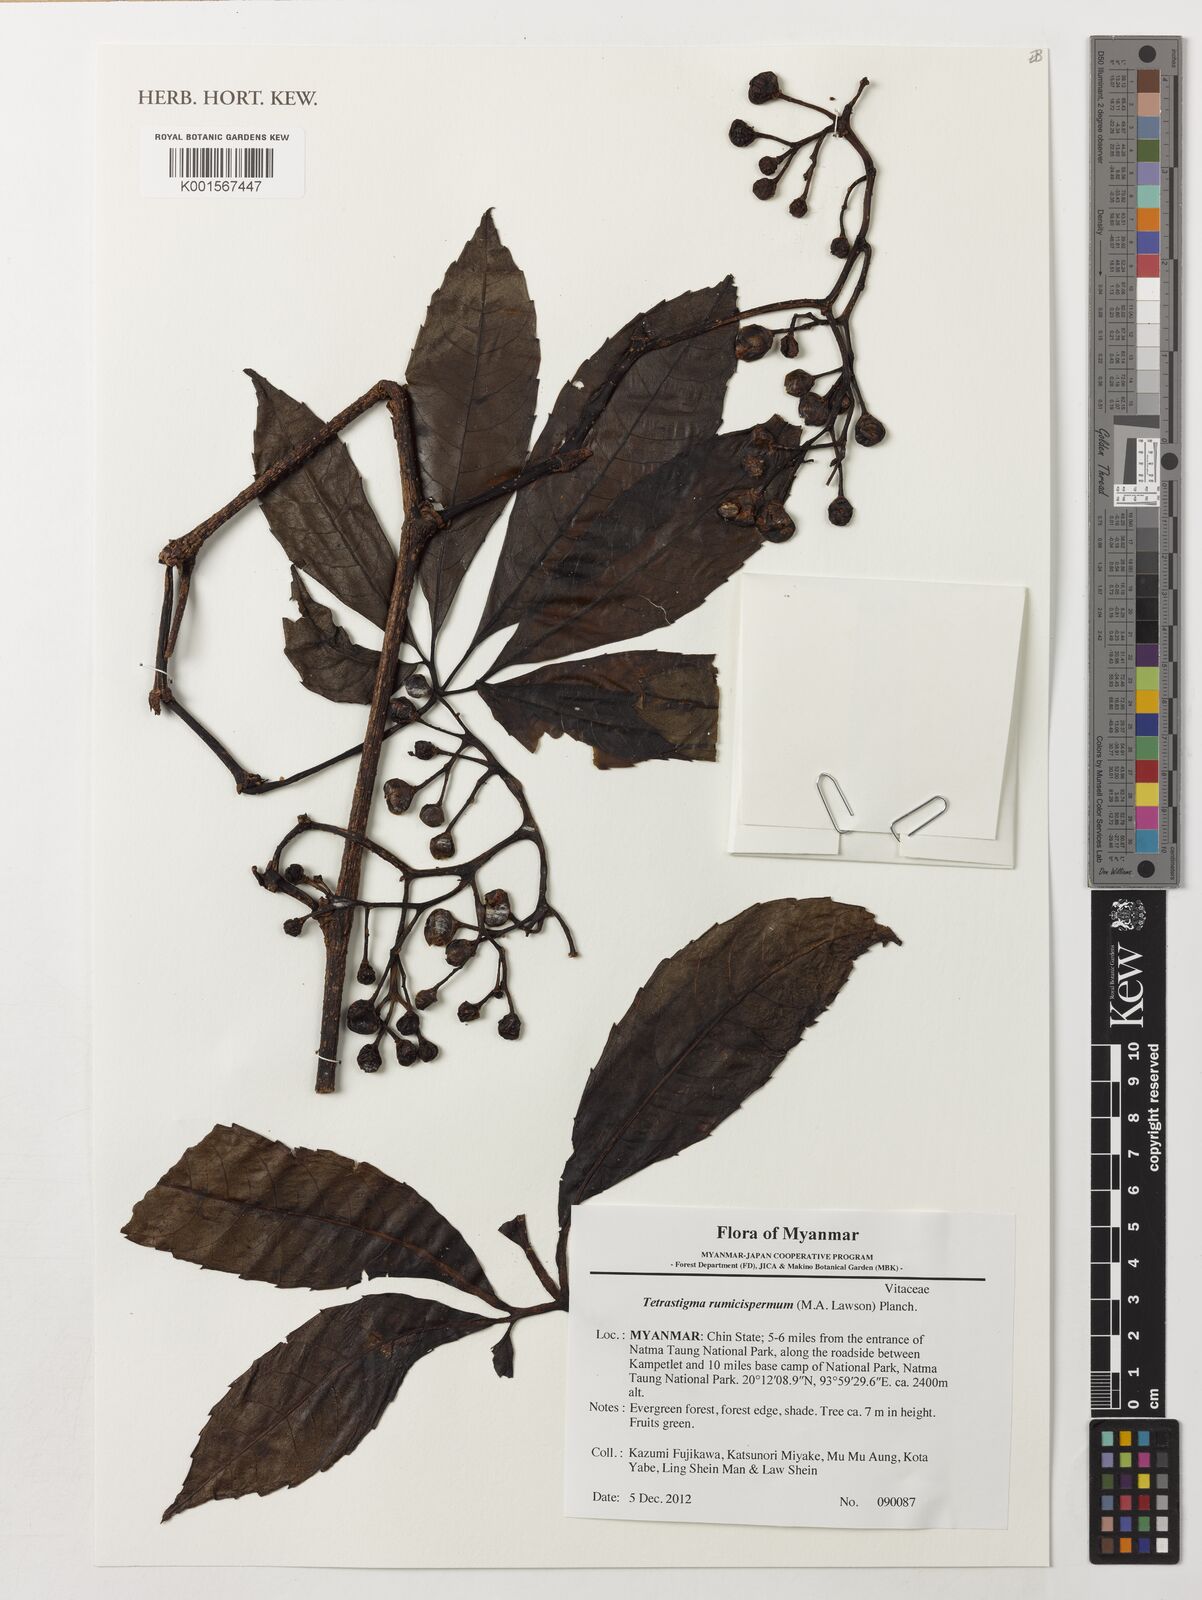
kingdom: Plantae
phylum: Tracheophyta
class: Magnoliopsida
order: Vitales
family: Vitaceae
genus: Tetrastigma
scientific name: Tetrastigma rumicispermum
